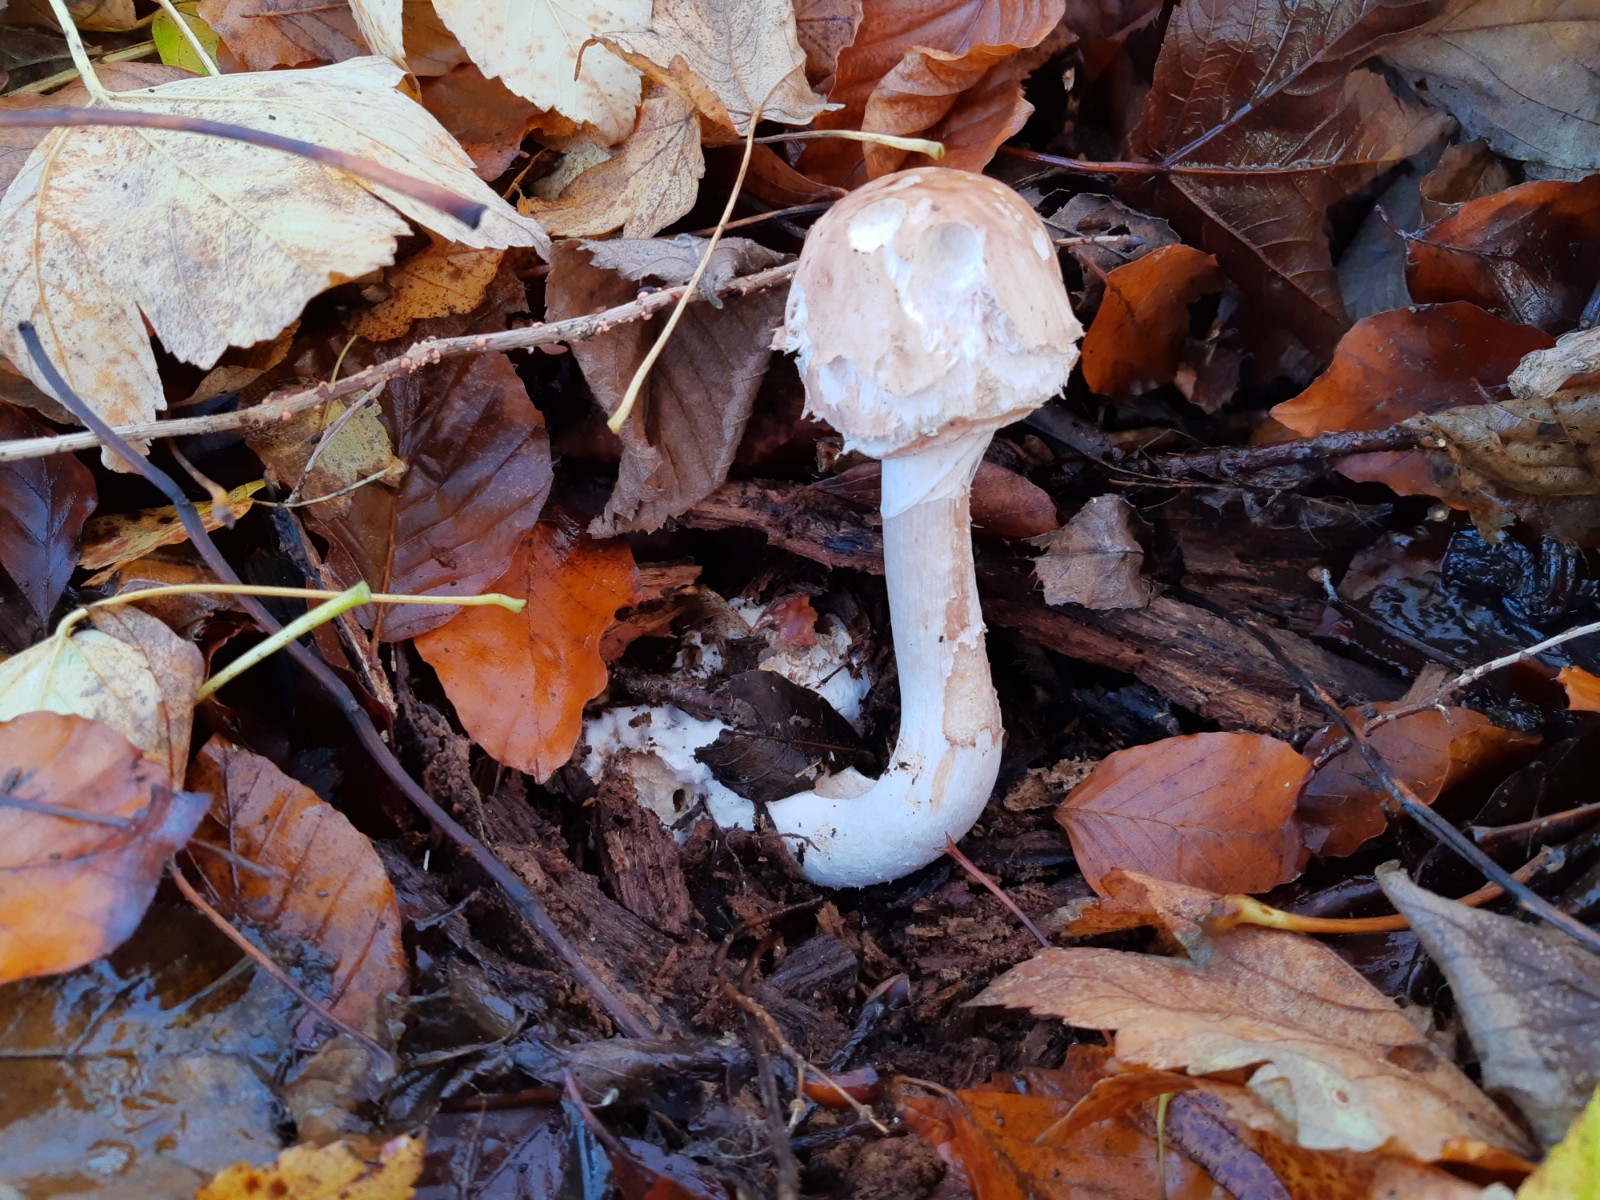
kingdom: Fungi
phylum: Basidiomycota
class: Agaricomycetes
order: Agaricales
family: Agaricaceae
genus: Chlorophyllum
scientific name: Chlorophyllum olivieri
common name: almindelig rabarberhat
